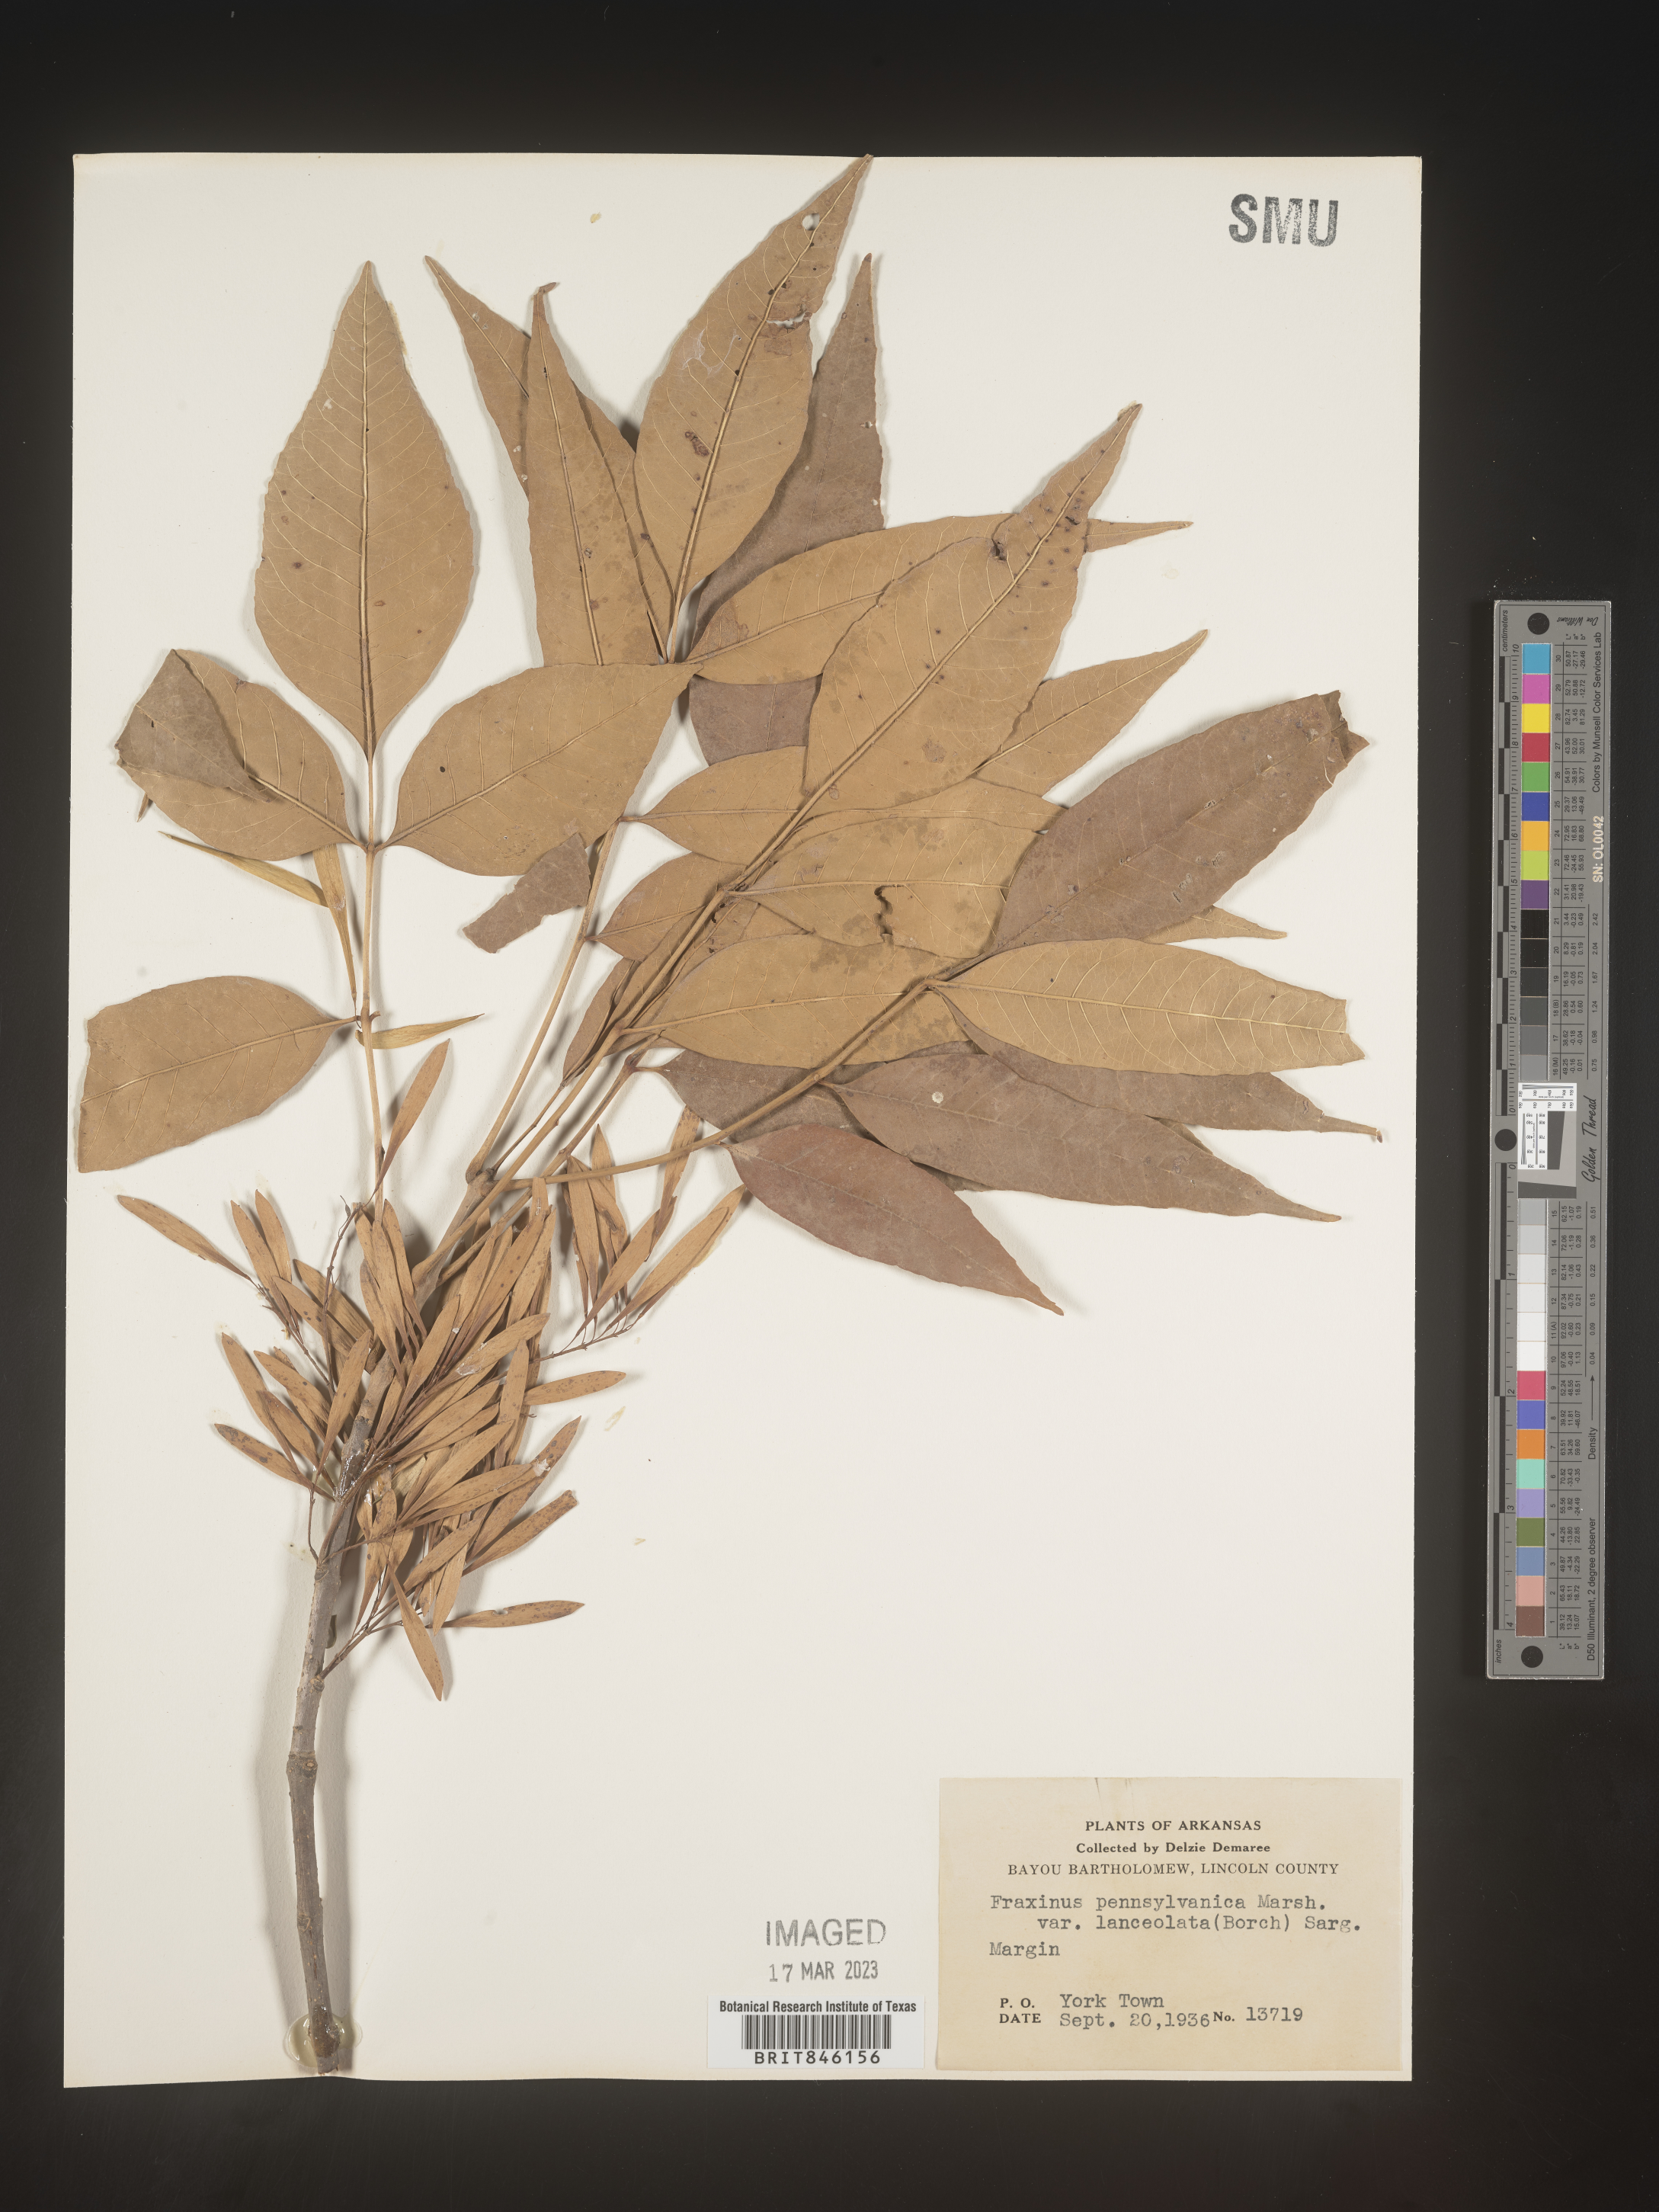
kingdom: Plantae
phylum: Tracheophyta
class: Magnoliopsida
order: Lamiales
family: Oleaceae
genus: Fraxinus
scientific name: Fraxinus pennsylvanica
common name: Green ash
